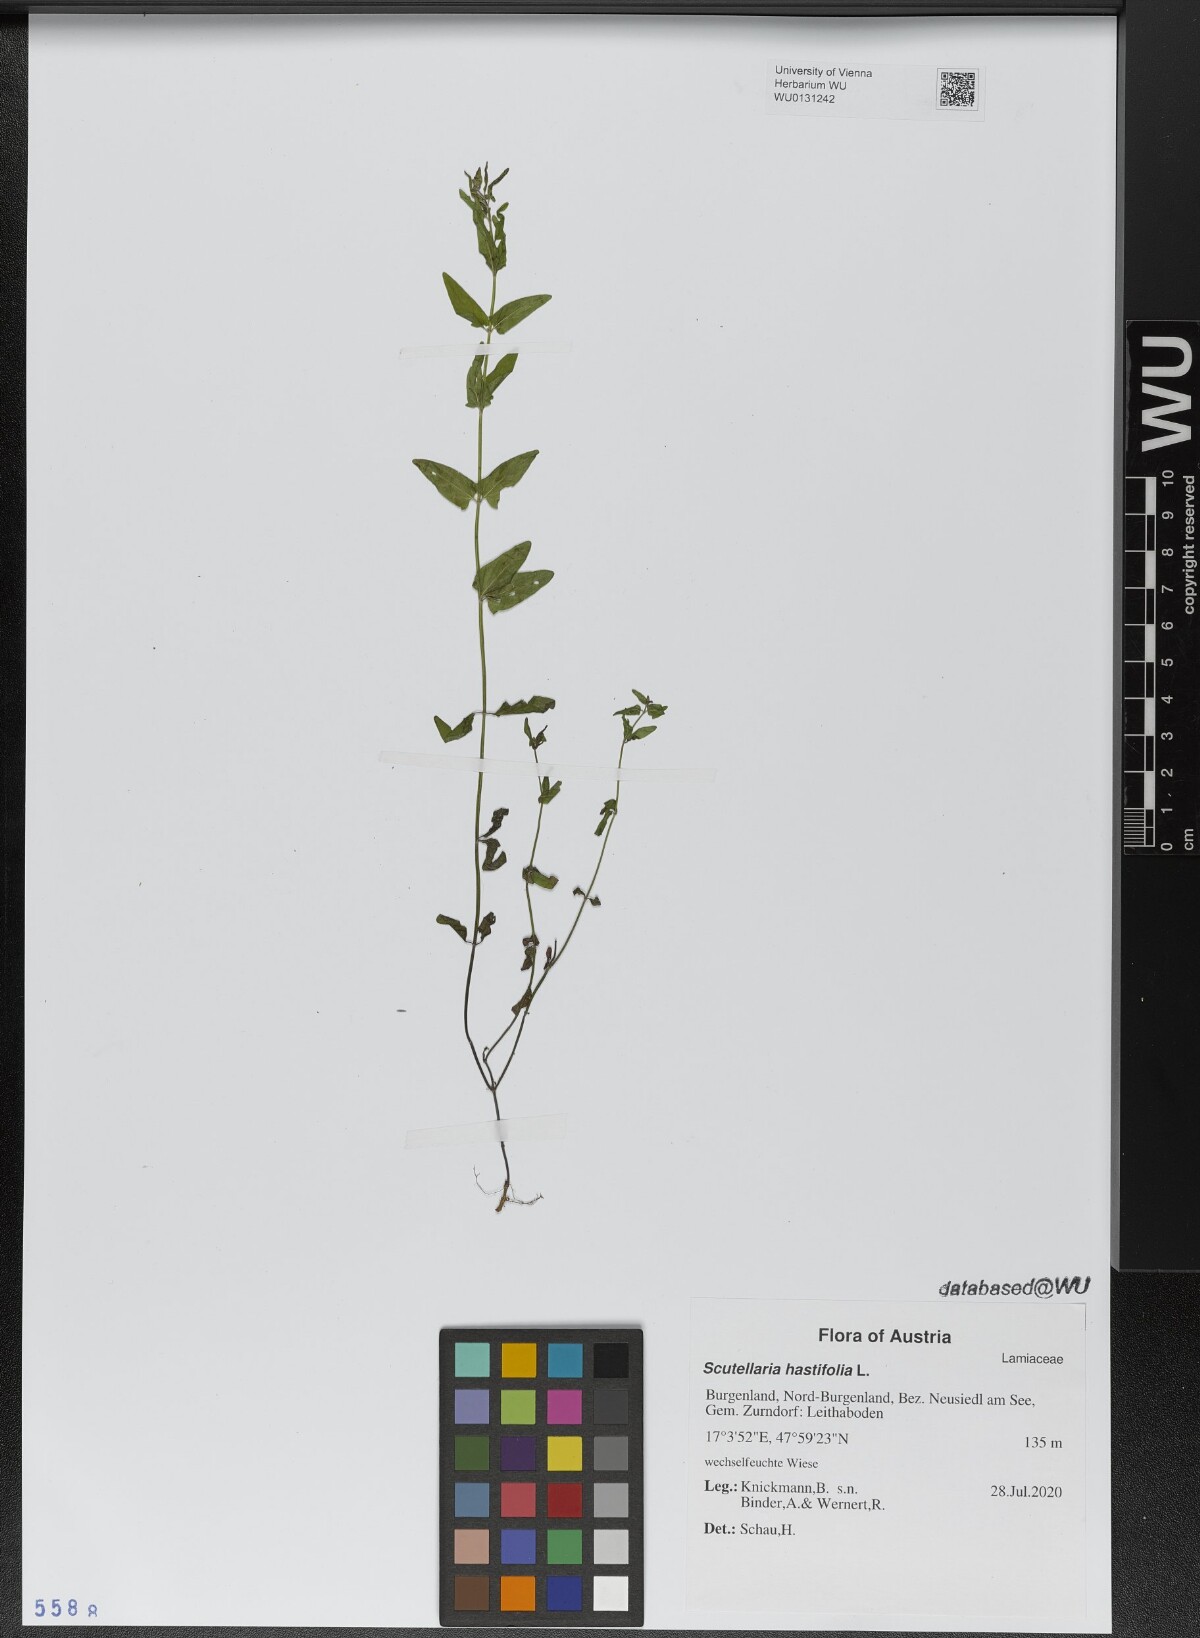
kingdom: Plantae
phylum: Tracheophyta
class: Magnoliopsida
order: Lamiales
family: Lamiaceae
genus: Scutellaria
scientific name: Scutellaria hastifolia
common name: Norfolk skullcap
